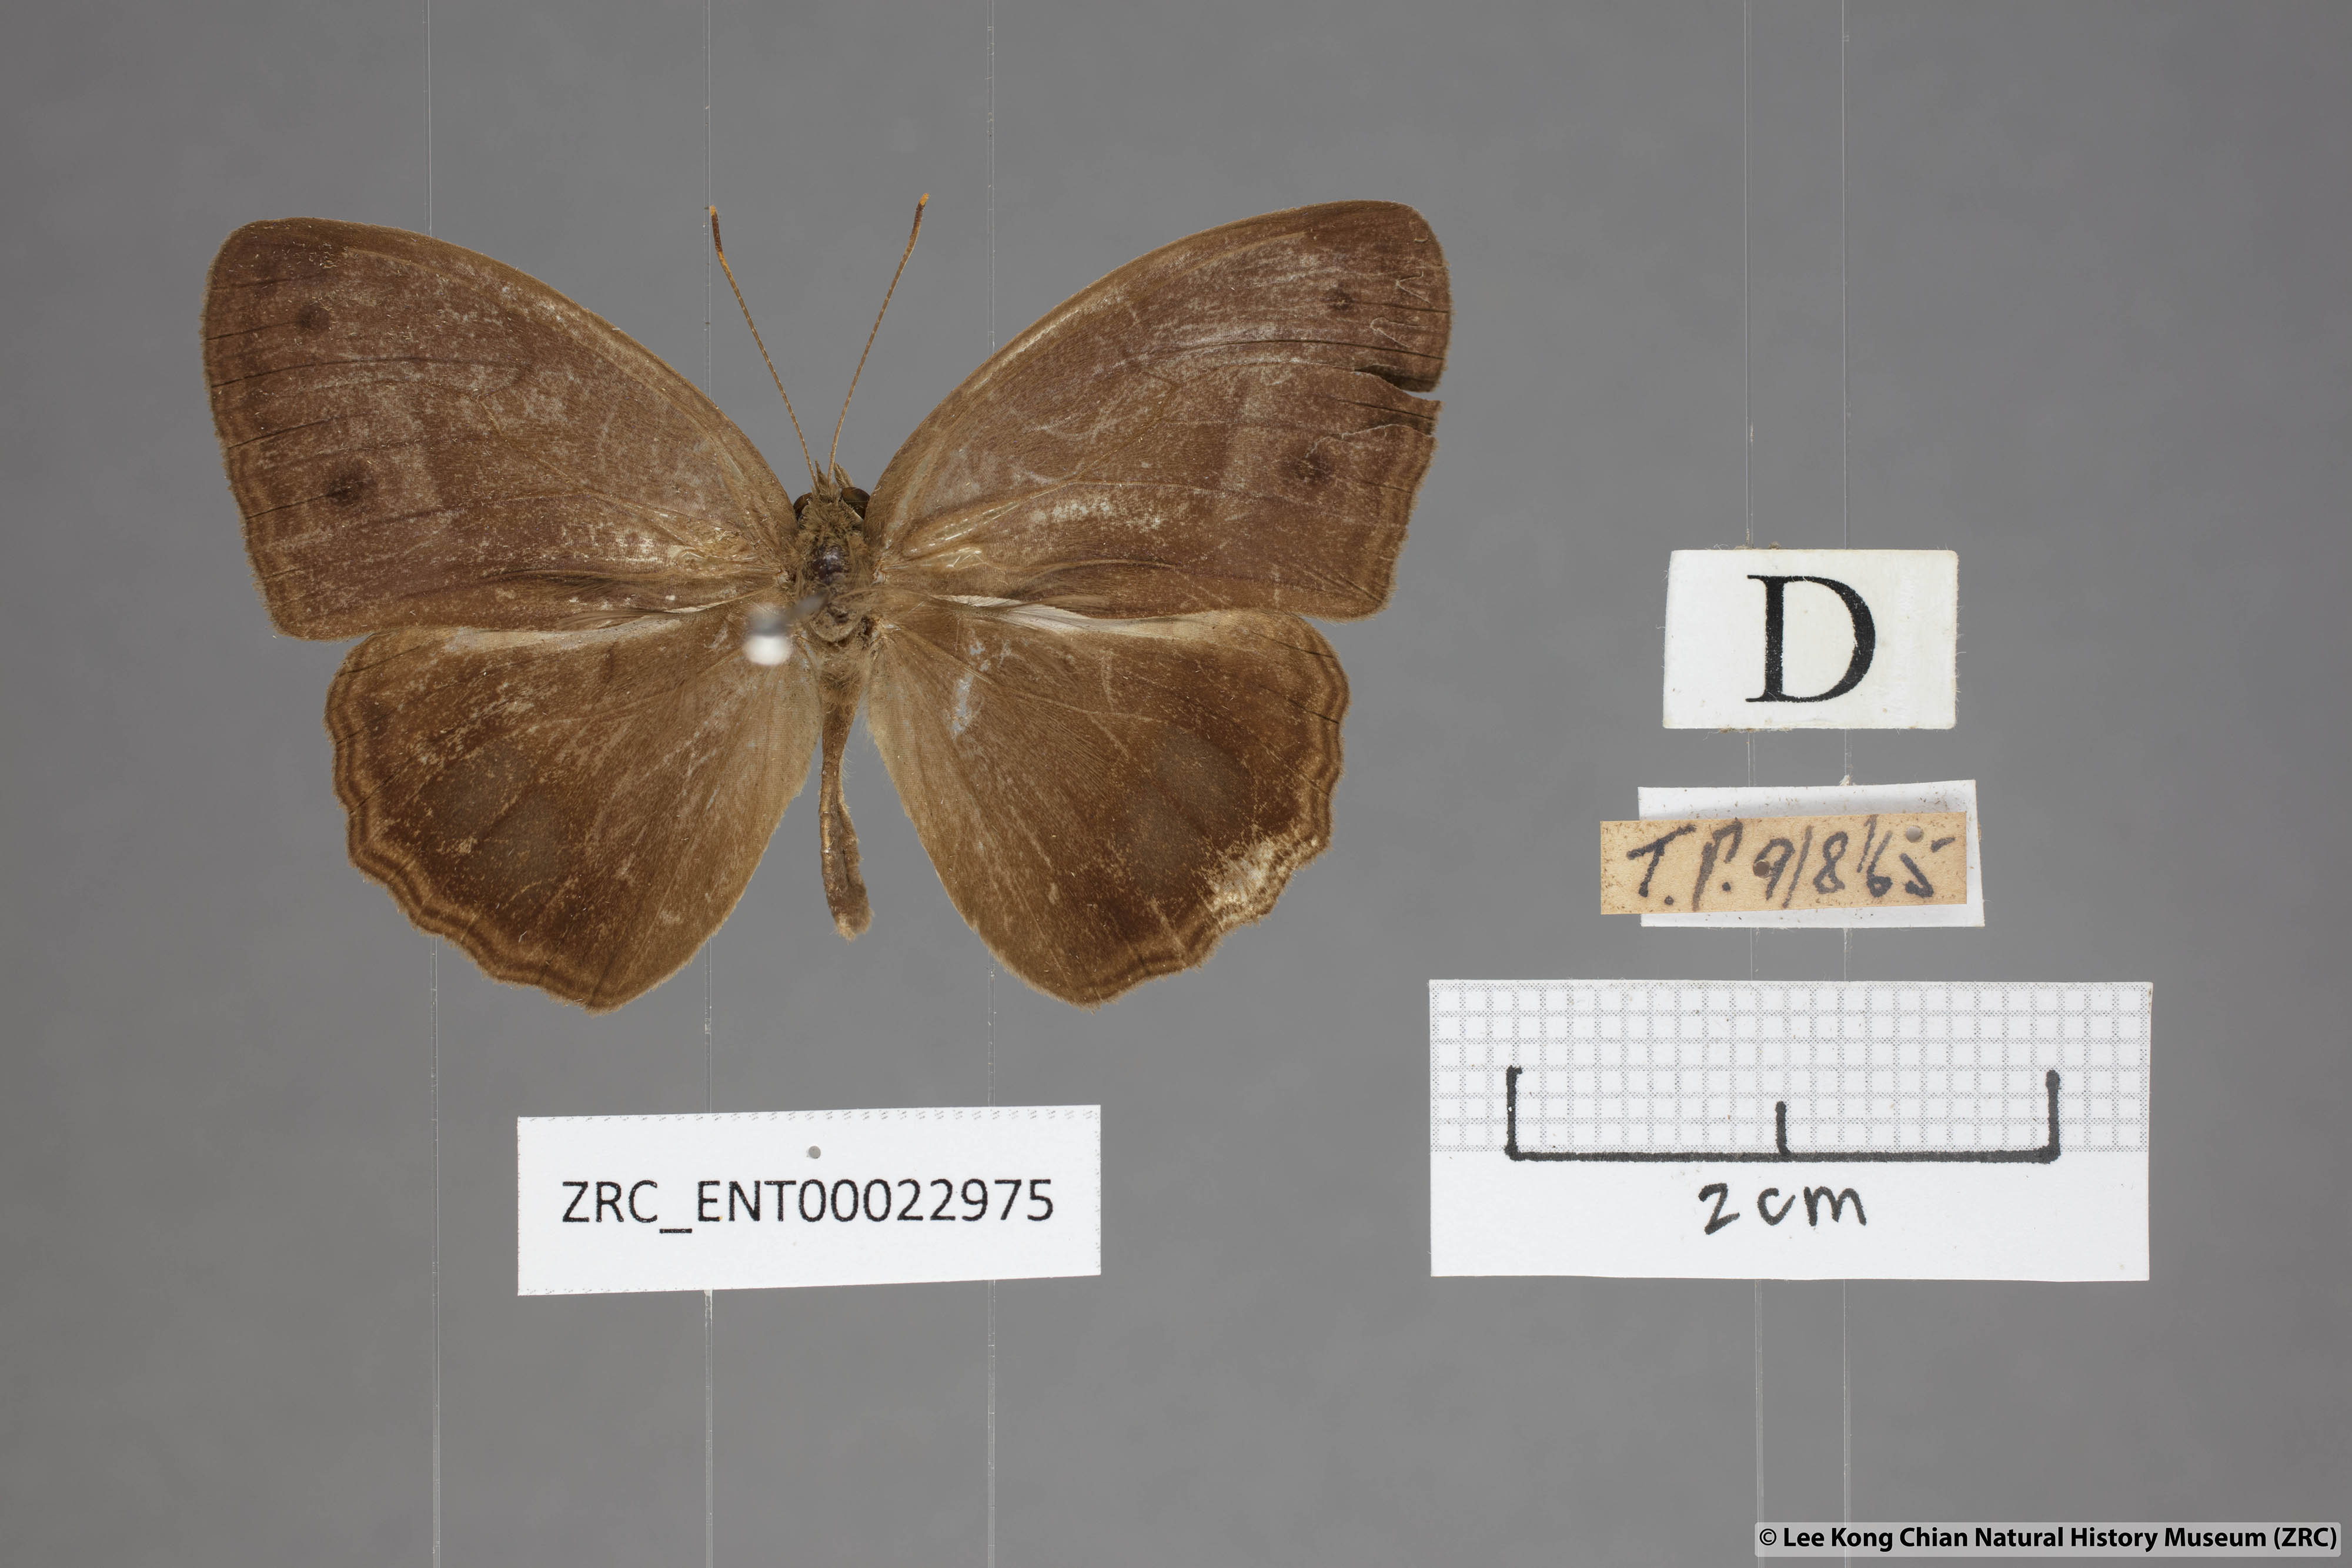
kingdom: Animalia
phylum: Arthropoda
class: Insecta
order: Lepidoptera
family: Nymphalidae
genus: Mycalesis
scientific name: Mycalesis orseis
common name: Purple bushbrown
